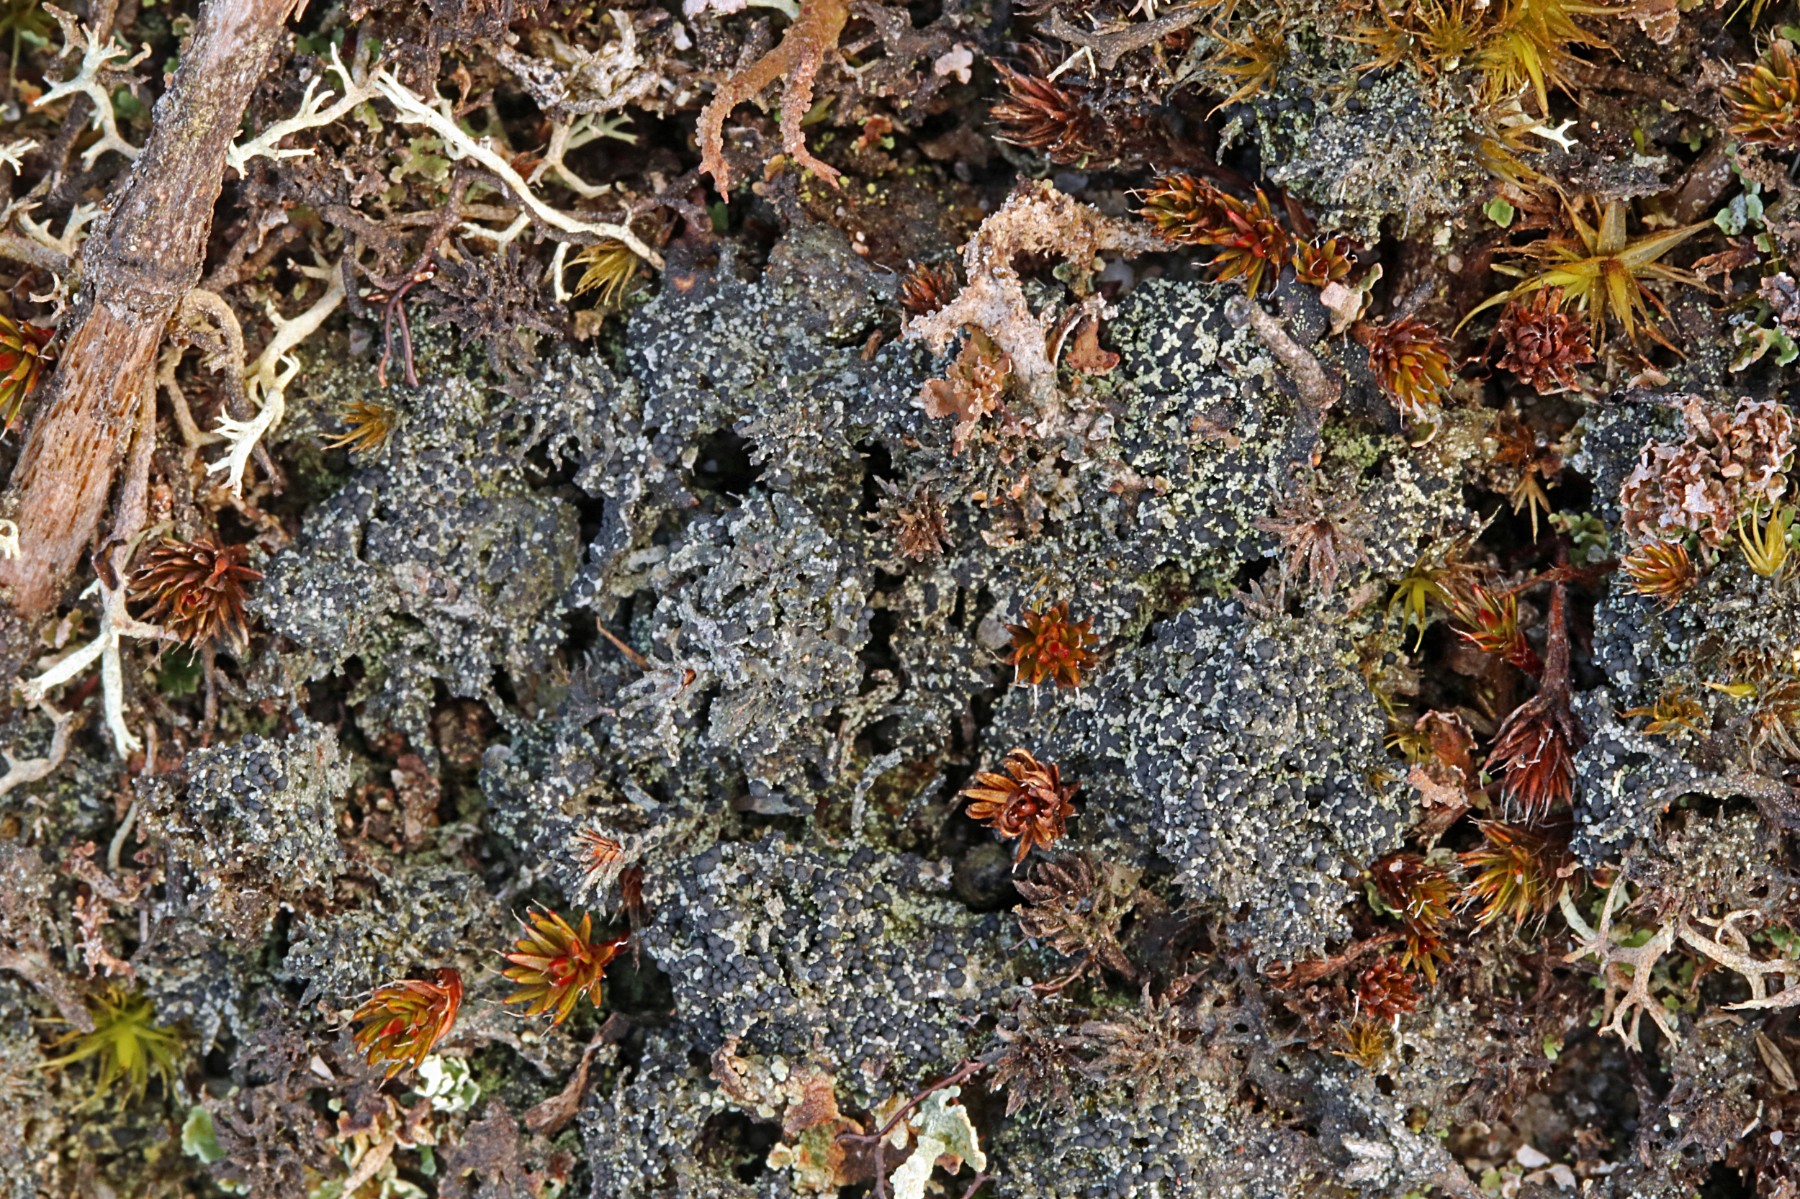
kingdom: Fungi
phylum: Ascomycota
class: Lecanoromycetes
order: Lecanorales
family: Byssolomataceae
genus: Micarea
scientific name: Micarea lignaria
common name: tørve-knaplav
